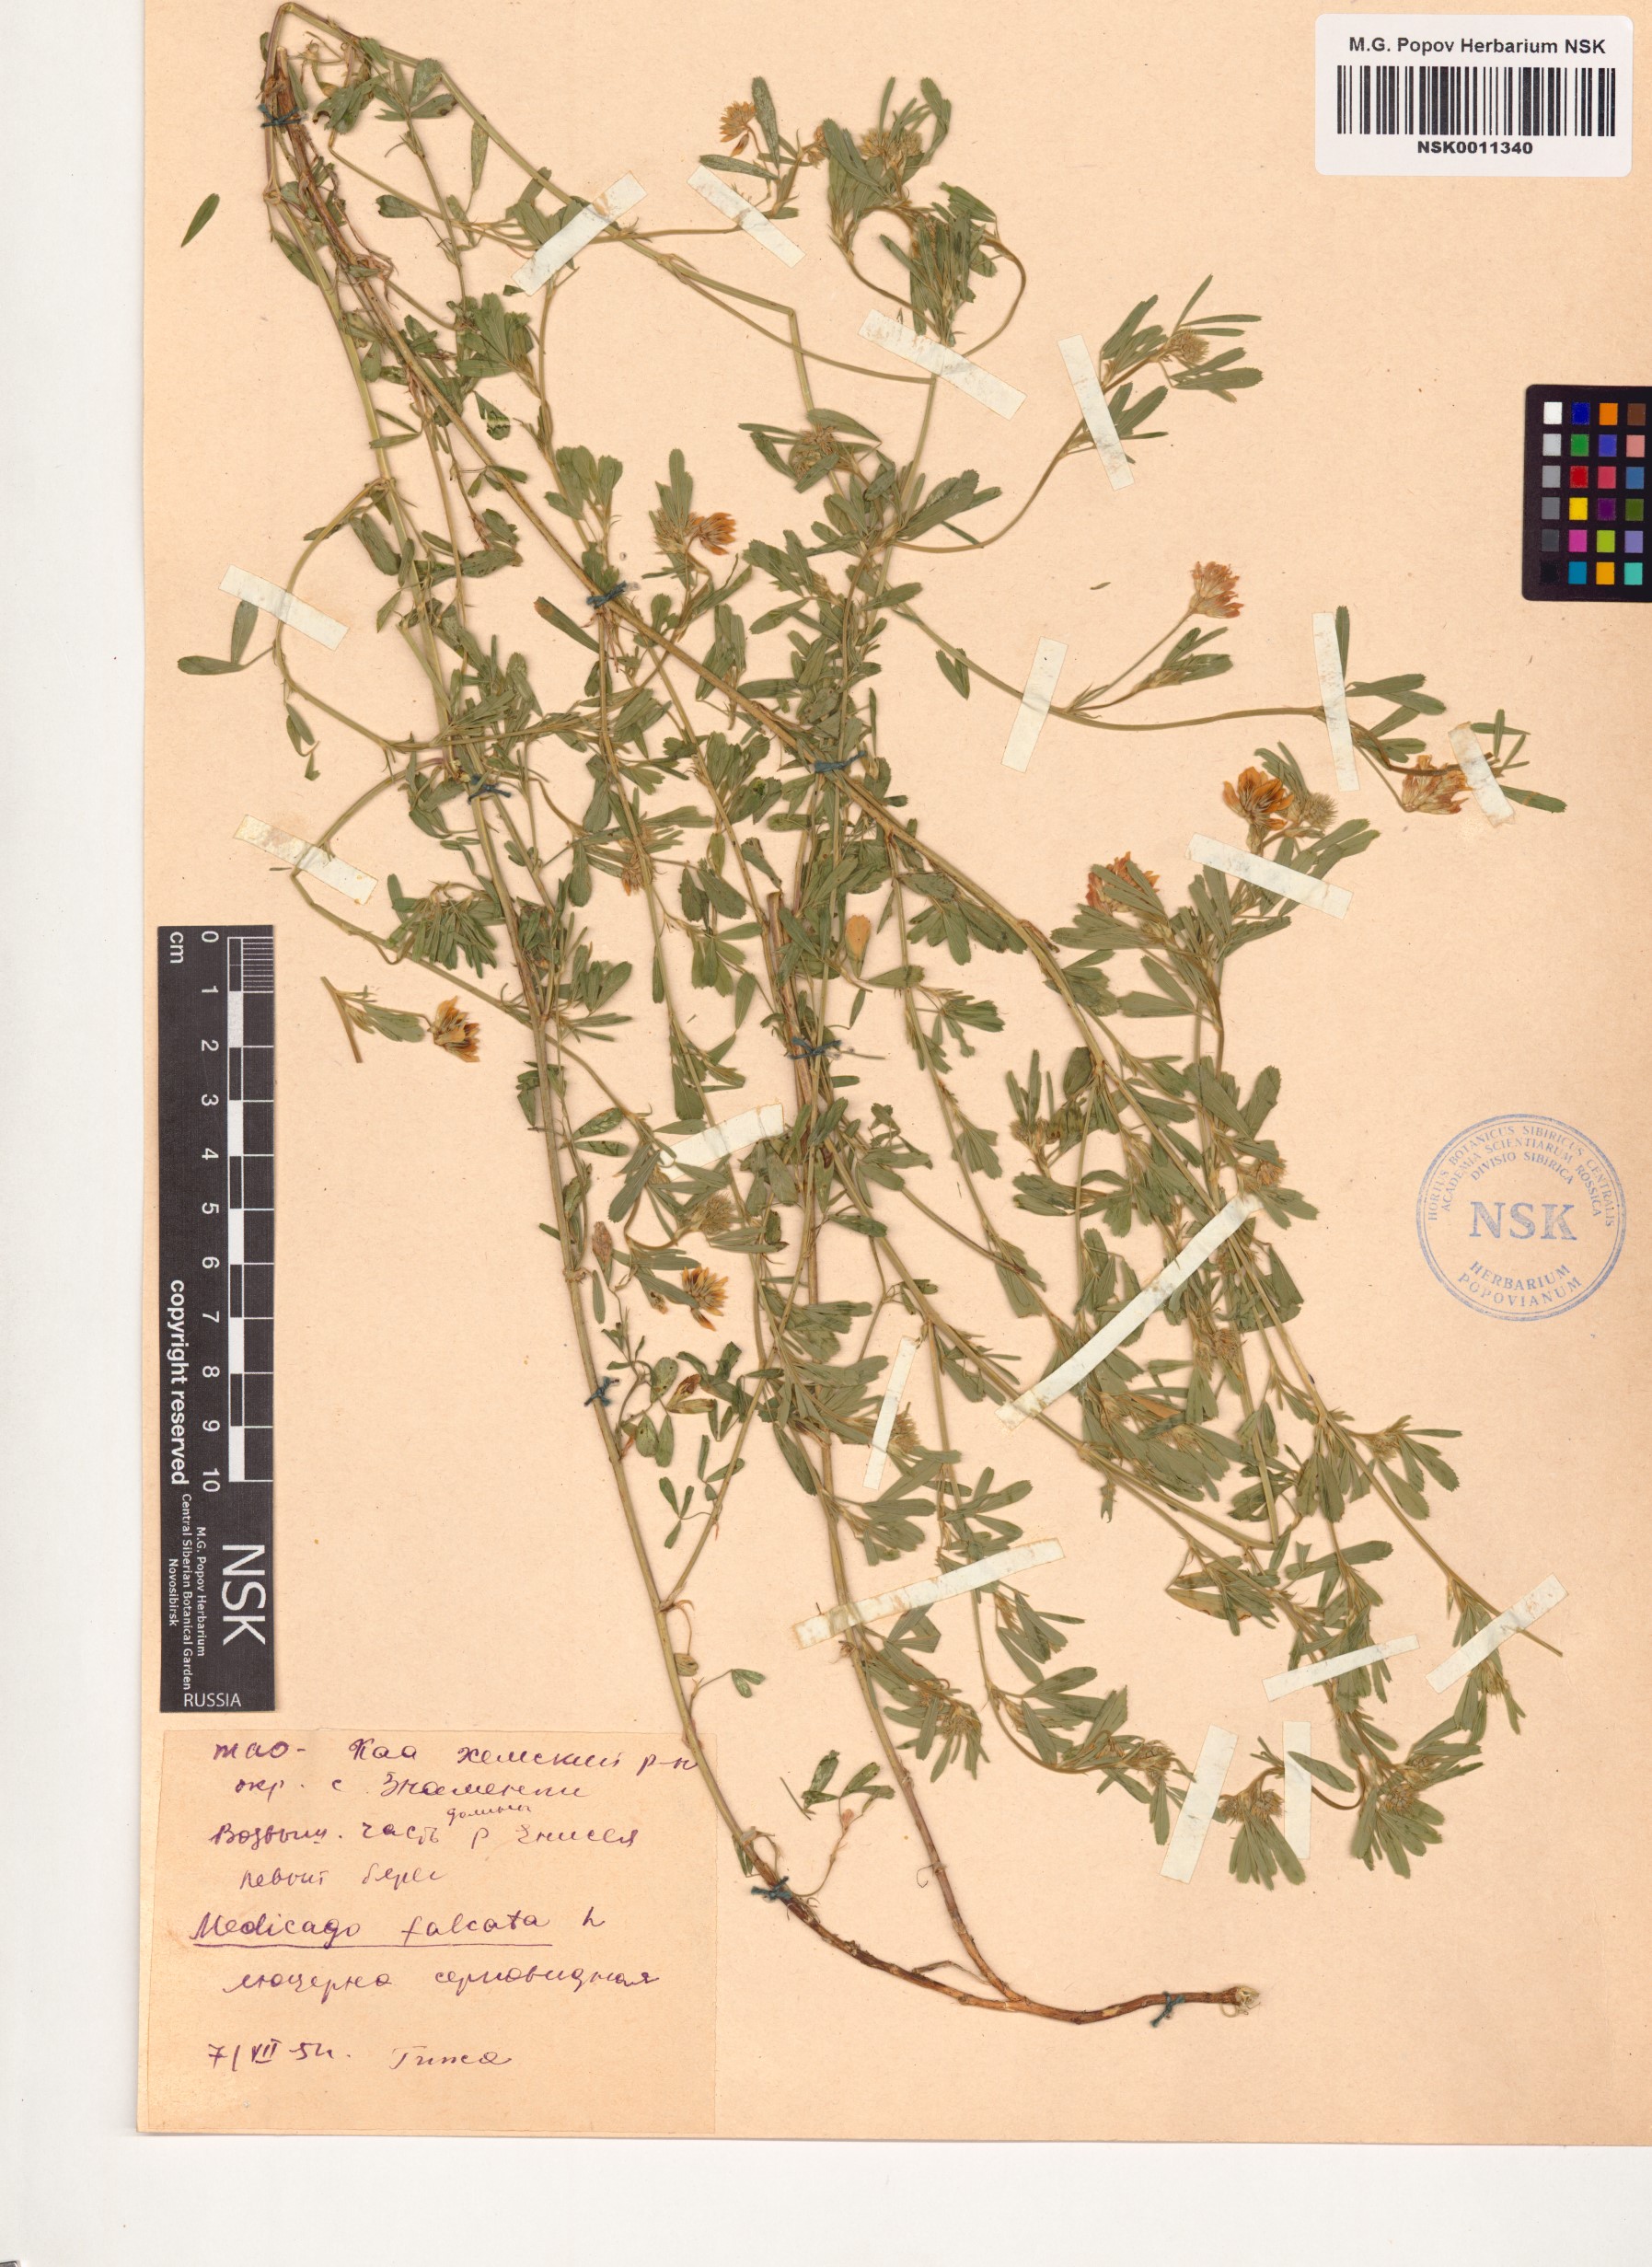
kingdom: Plantae
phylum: Tracheophyta
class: Magnoliopsida
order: Fabales
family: Fabaceae
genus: Medicago
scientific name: Medicago falcata
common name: Sickle medick
